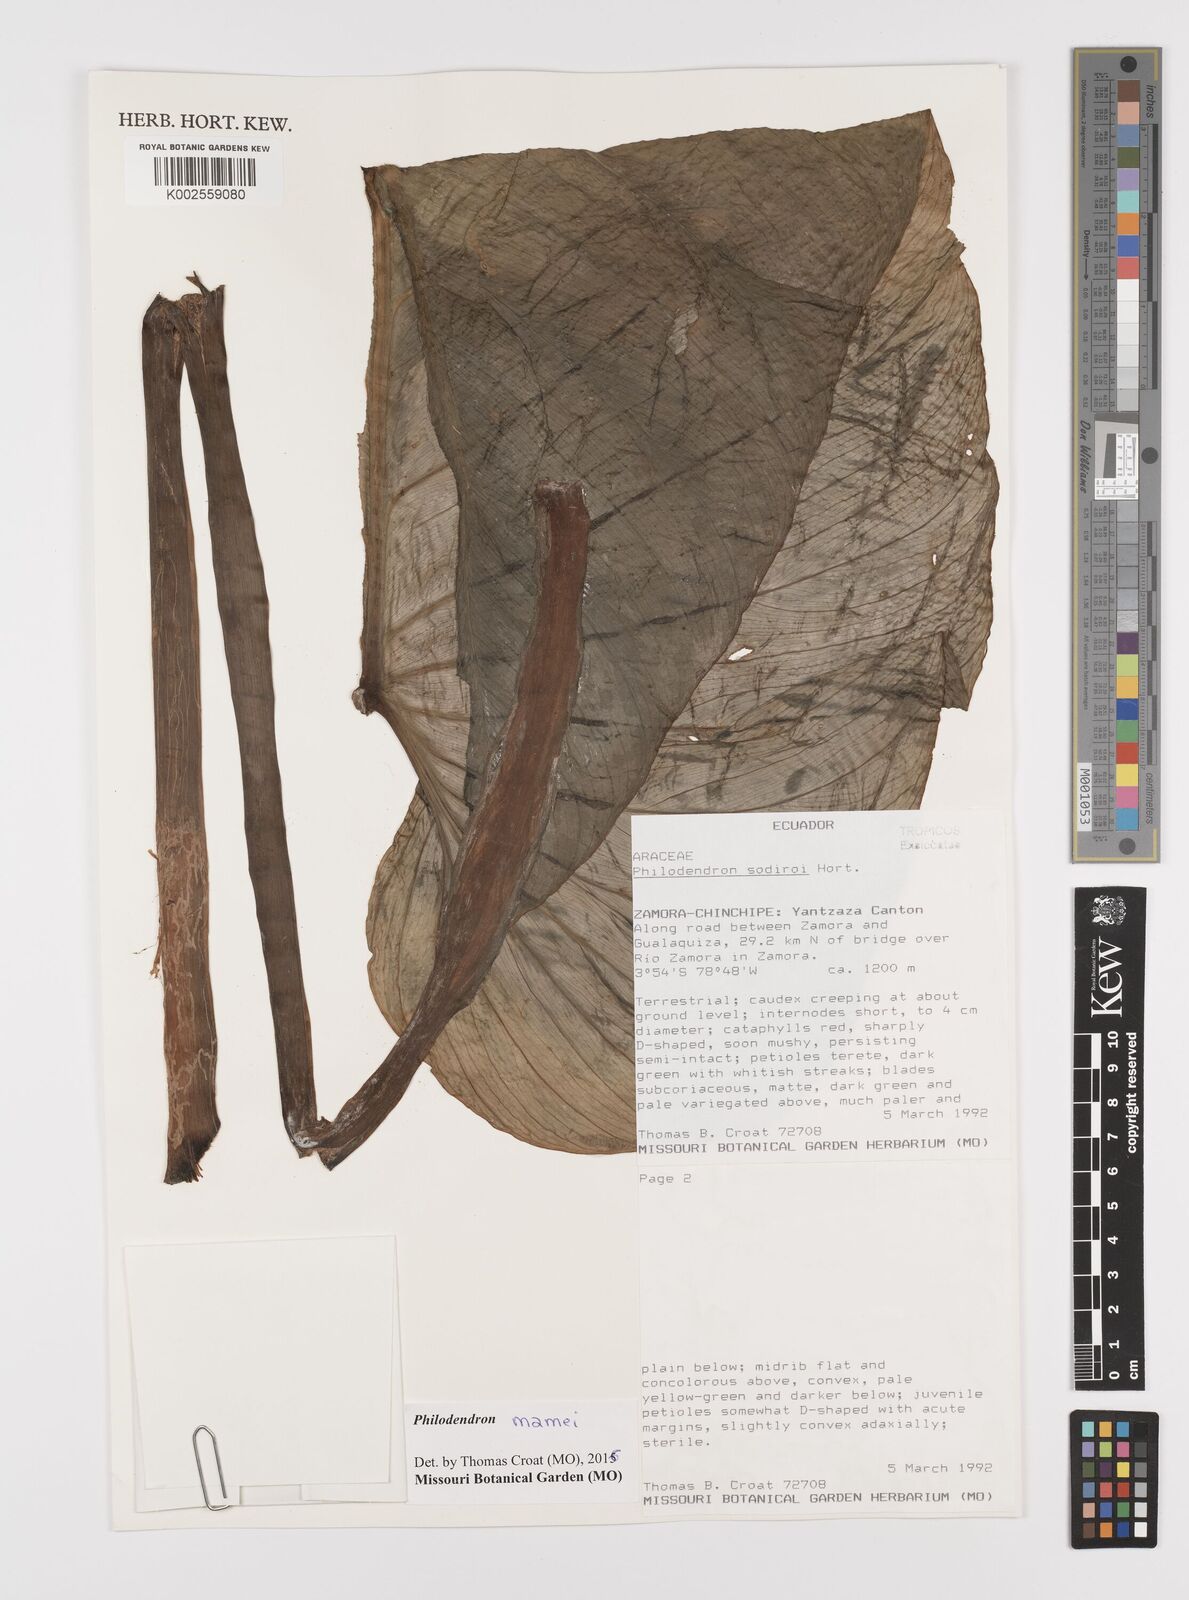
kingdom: Plantae
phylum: Tracheophyta
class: Liliopsida
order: Alismatales
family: Araceae
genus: Philodendron
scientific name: Philodendron mamei
